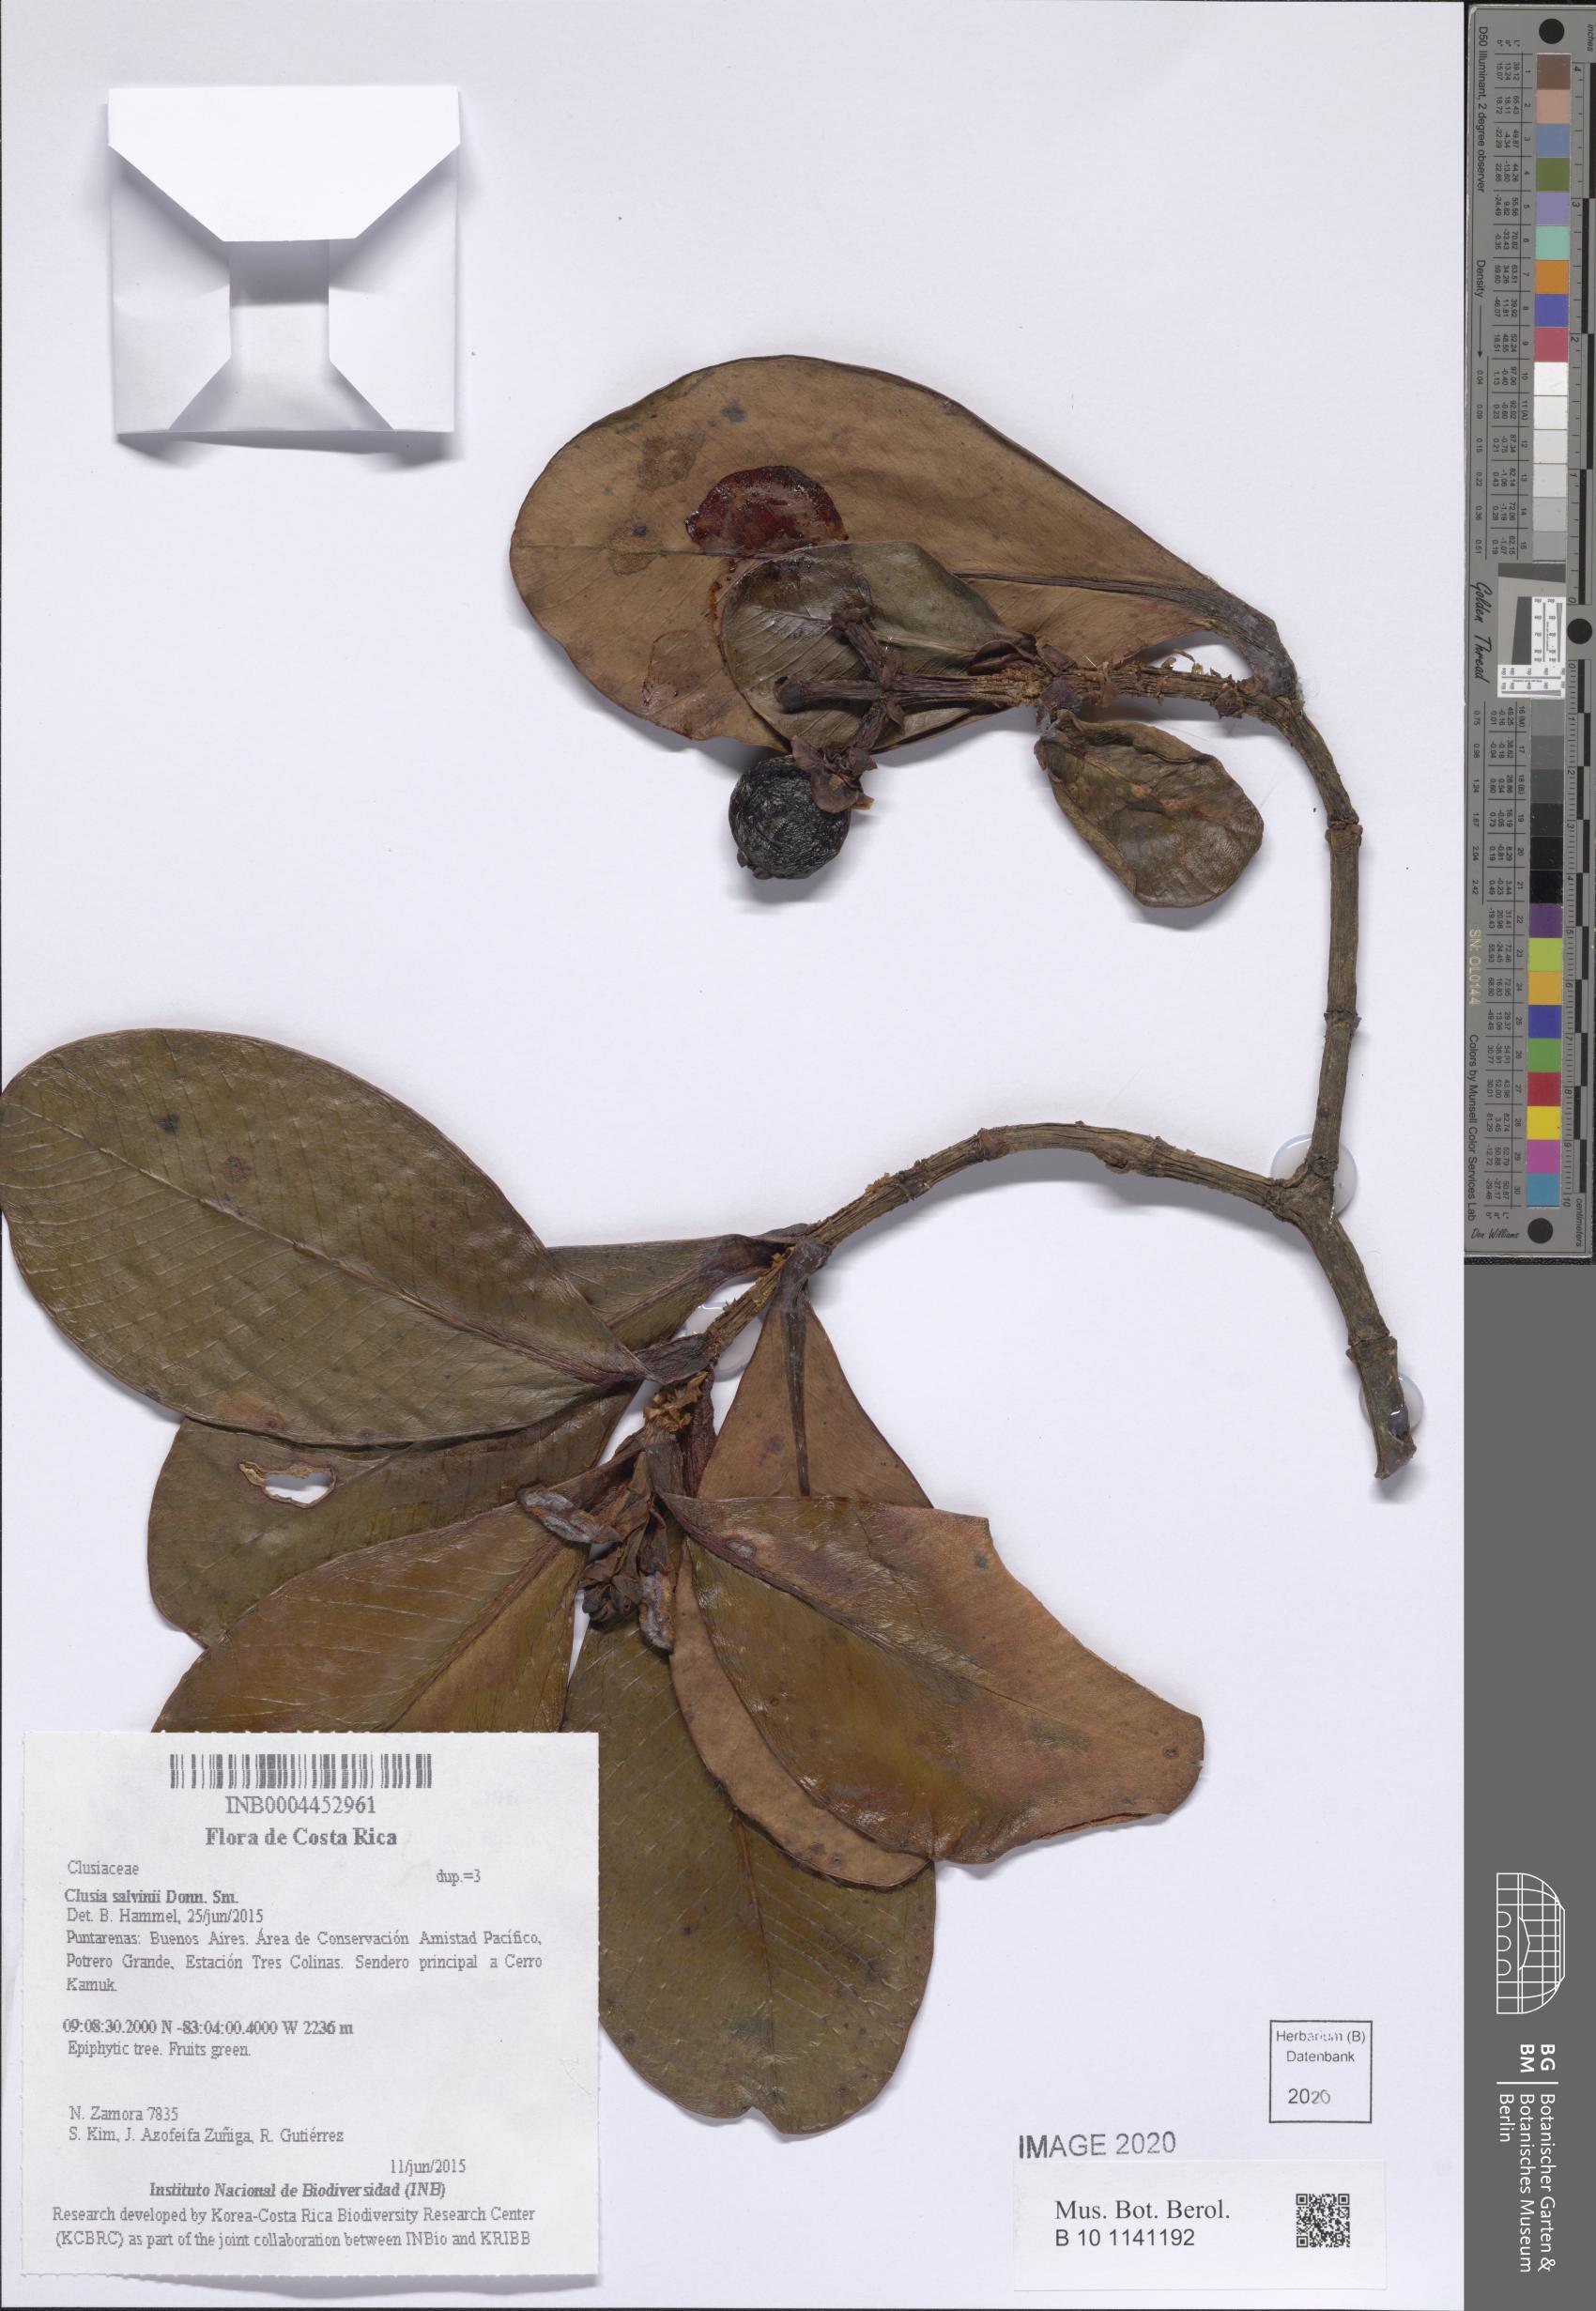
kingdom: Plantae
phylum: Tracheophyta
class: Magnoliopsida
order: Malpighiales
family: Clusiaceae
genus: Clusia
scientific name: Clusia salvinii
